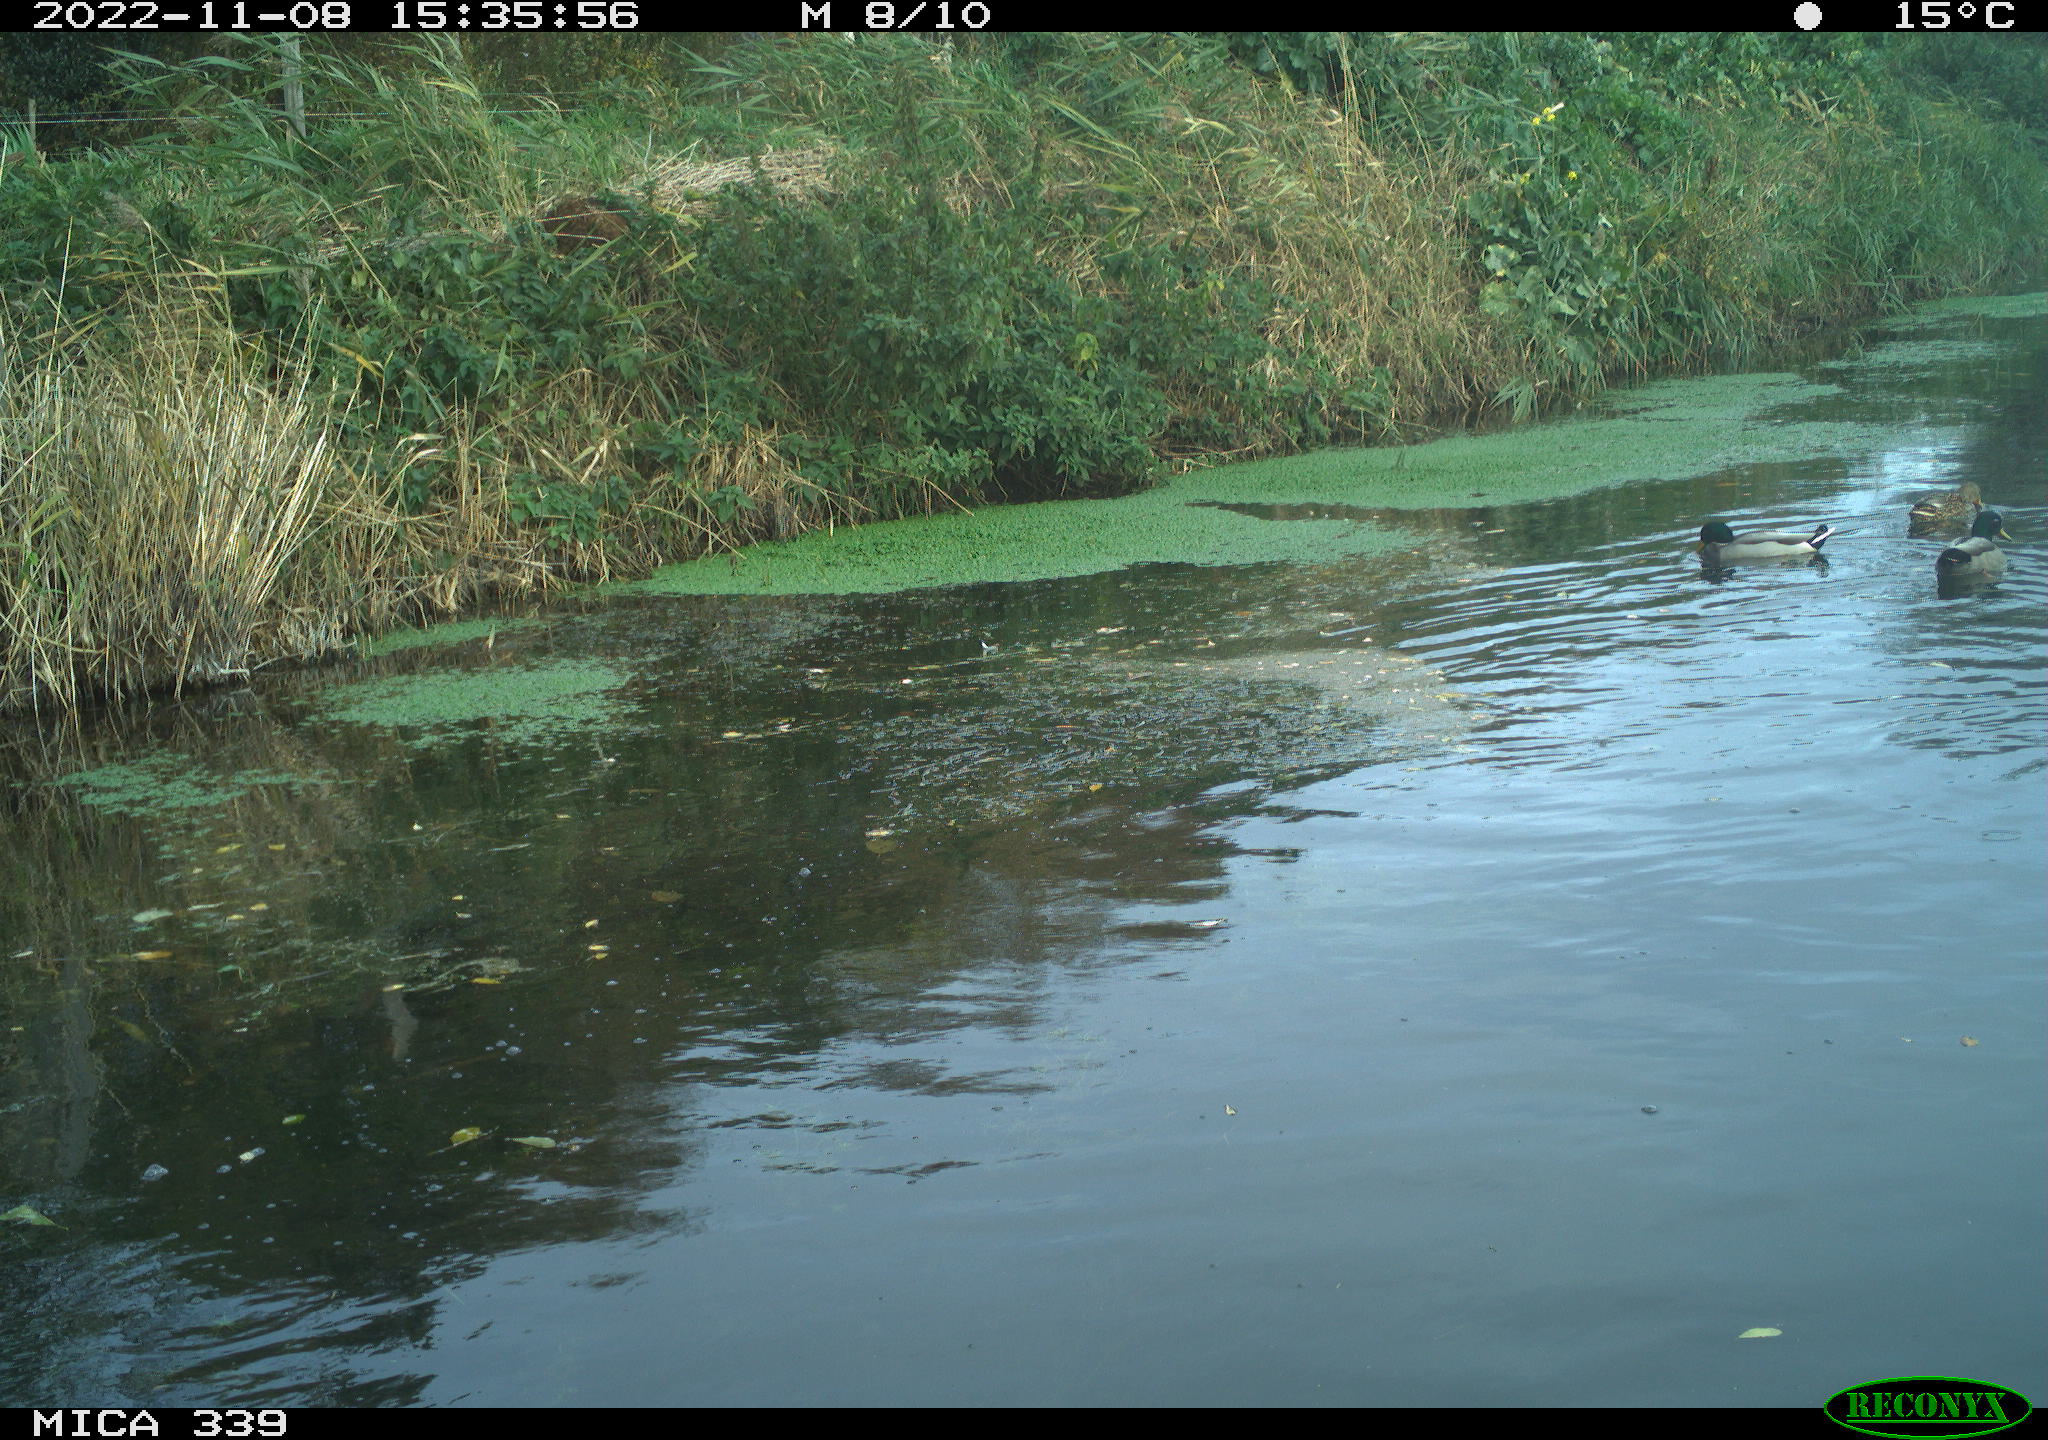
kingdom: Animalia
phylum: Chordata
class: Aves
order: Anseriformes
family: Anatidae
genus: Anas
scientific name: Anas platyrhynchos
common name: Mallard
